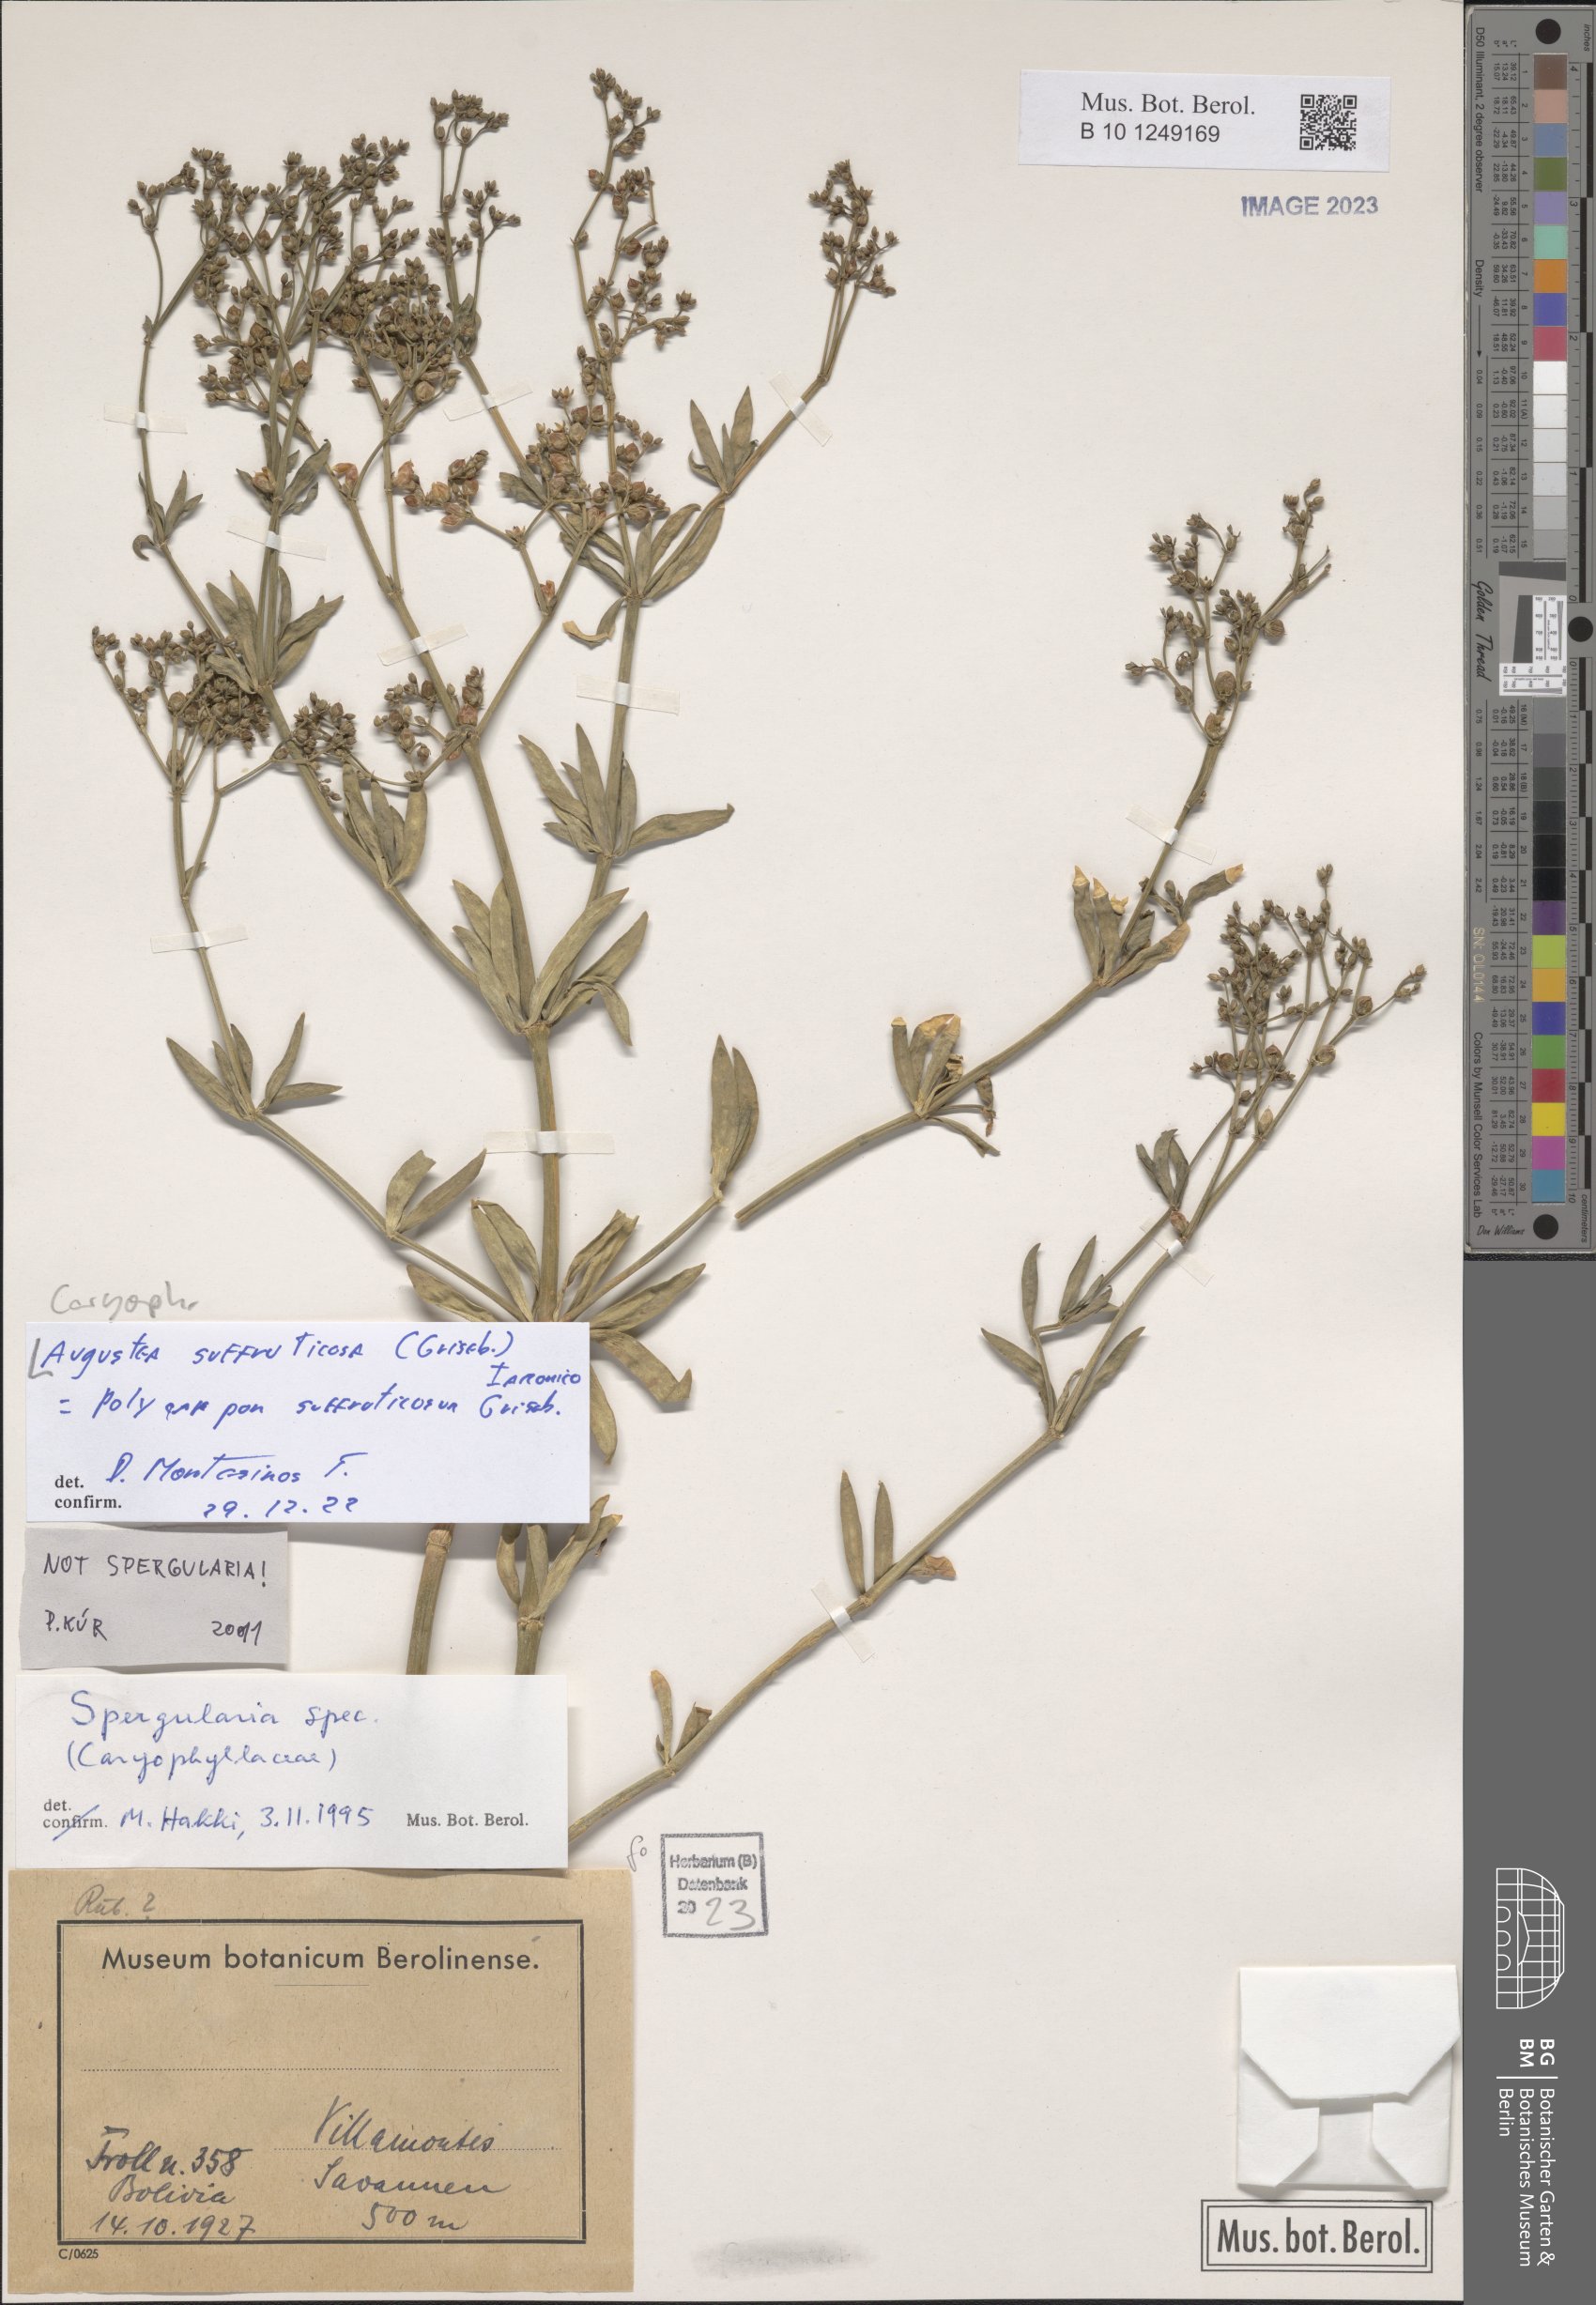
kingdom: Plantae
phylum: Tracheophyta
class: Magnoliopsida
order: Caryophyllales
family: Caryophyllaceae
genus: Augustea
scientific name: Augustea suffruticosa
